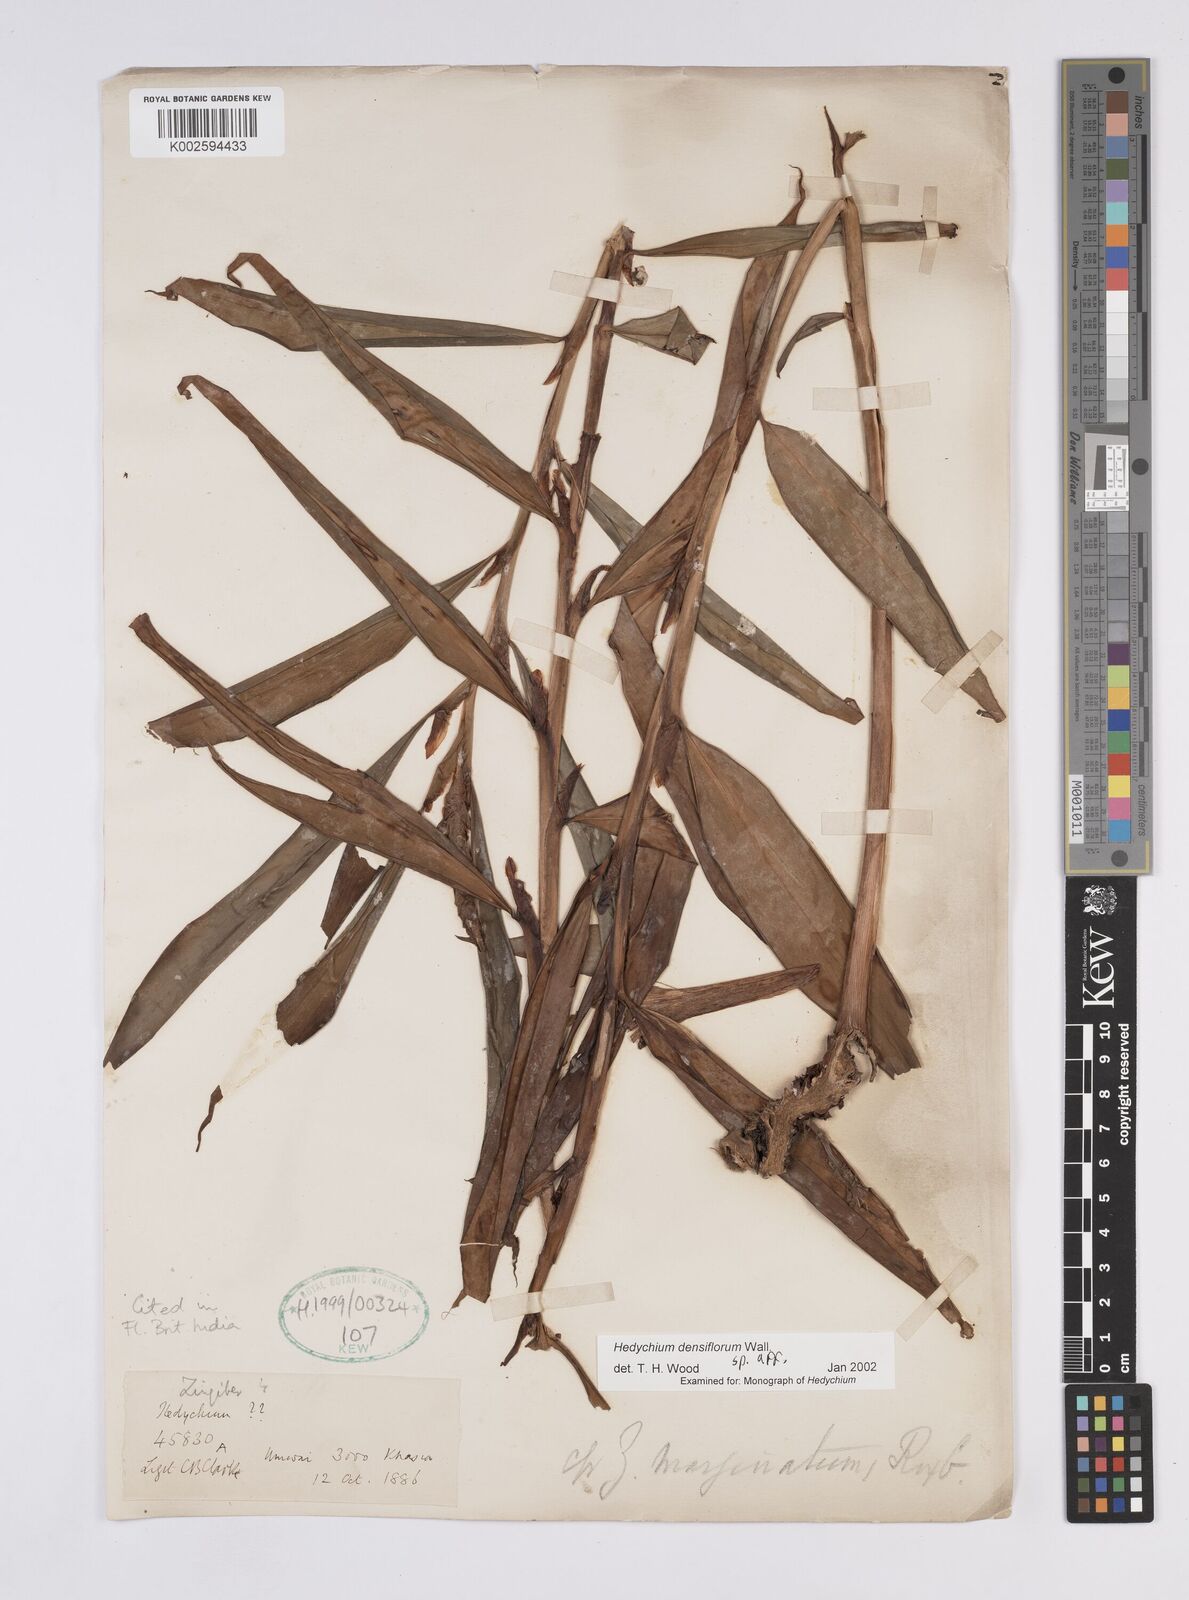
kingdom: Plantae
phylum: Tracheophyta
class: Liliopsida
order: Zingiberales
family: Zingiberaceae
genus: Hedychium
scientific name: Hedychium densiflorum
